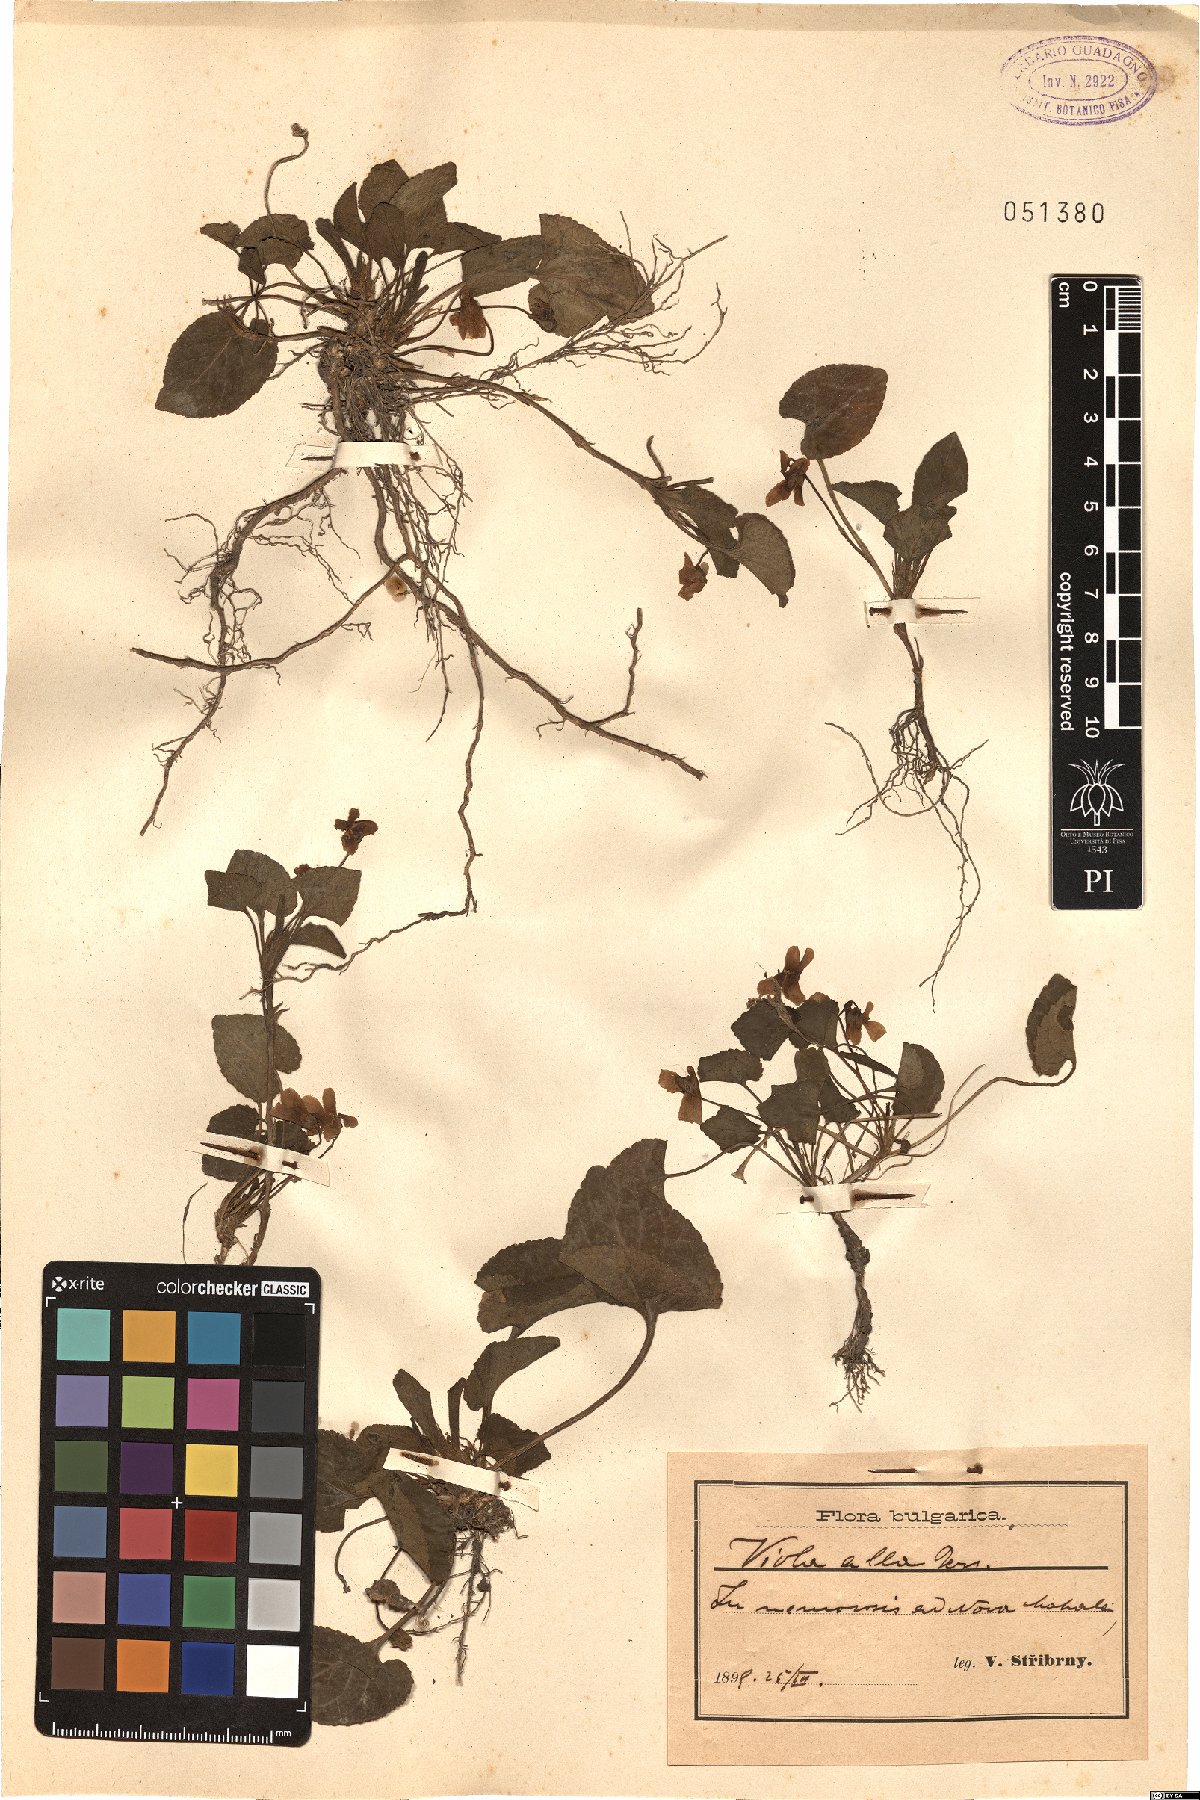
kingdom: Plantae
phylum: Tracheophyta
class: Magnoliopsida
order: Malpighiales
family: Violaceae
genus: Viola
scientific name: Viola alba
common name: White violet
